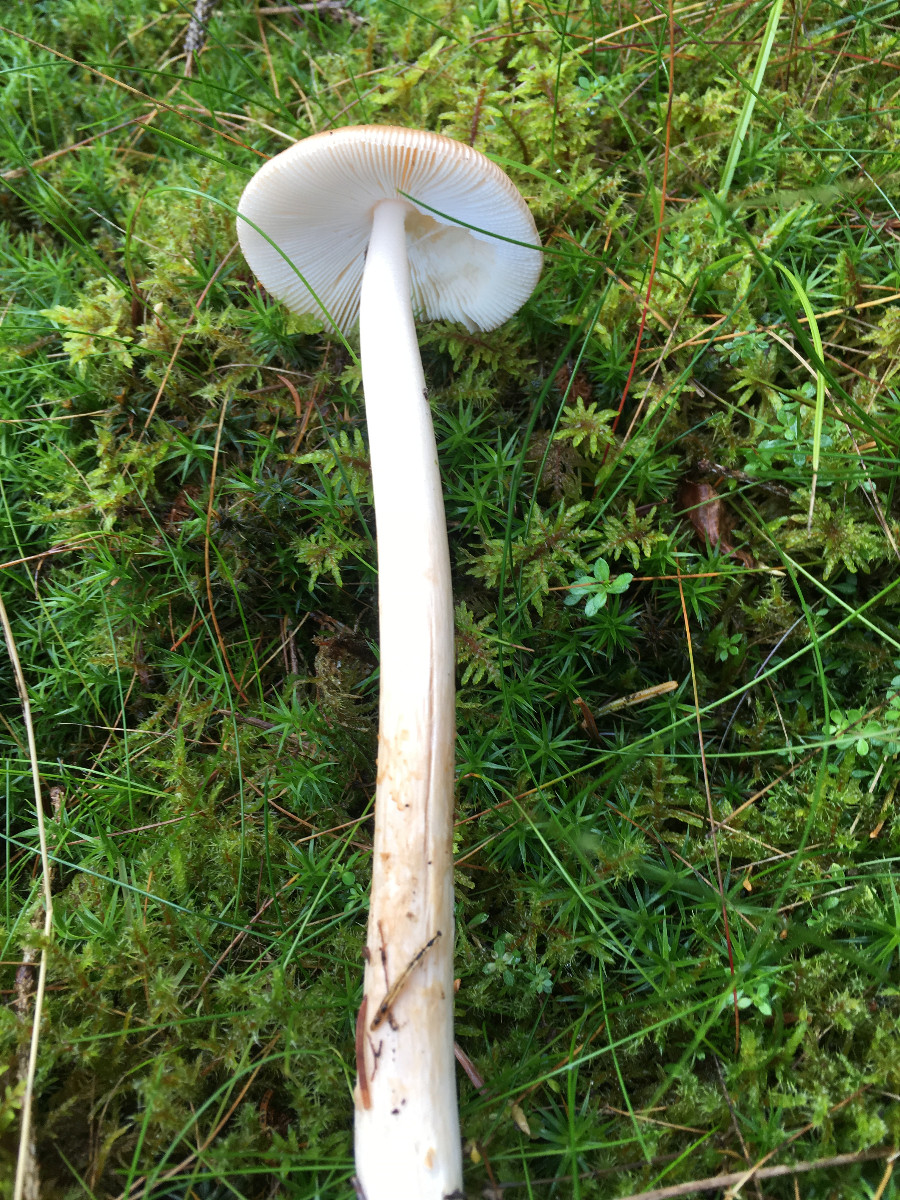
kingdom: Fungi
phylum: Basidiomycota
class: Agaricomycetes
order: Agaricales
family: Amanitaceae
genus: Amanita
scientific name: Amanita fulva
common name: brun kam-fluesvamp
